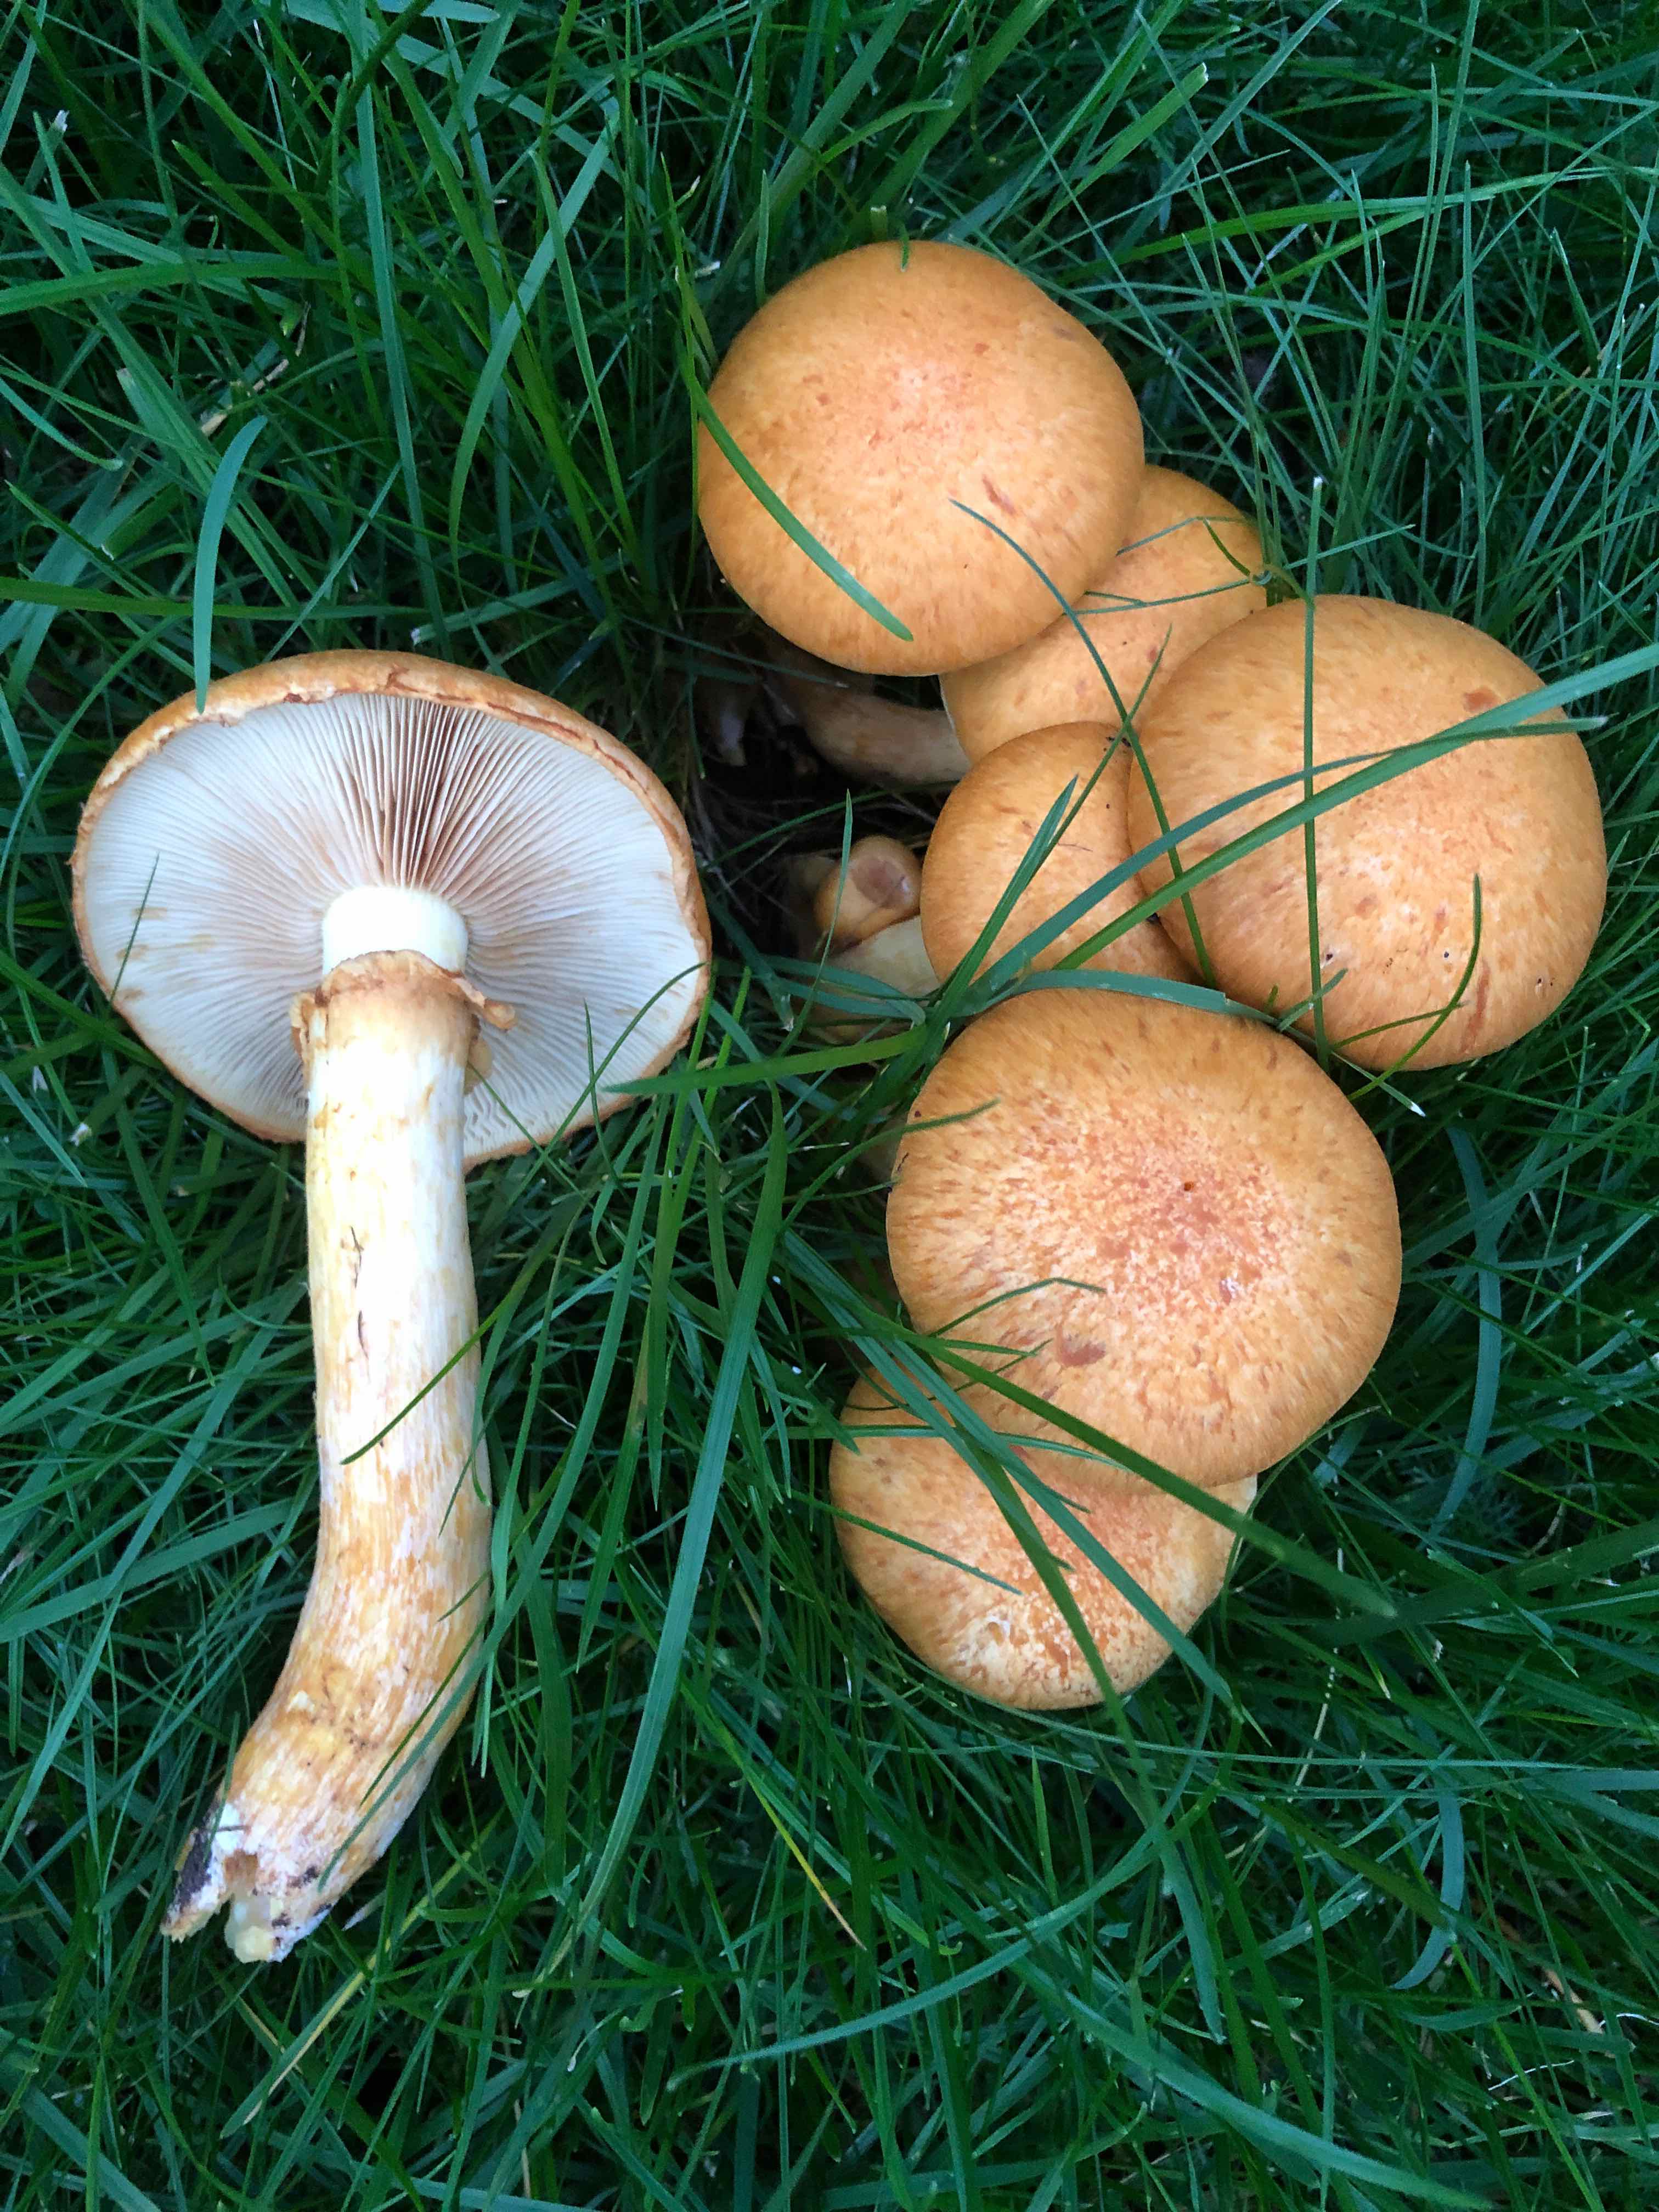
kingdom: Fungi
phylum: Basidiomycota
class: Agaricomycetes
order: Agaricales
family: Hymenogastraceae
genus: Gymnopilus
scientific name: Gymnopilus spectabilis
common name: fibret flammehat
